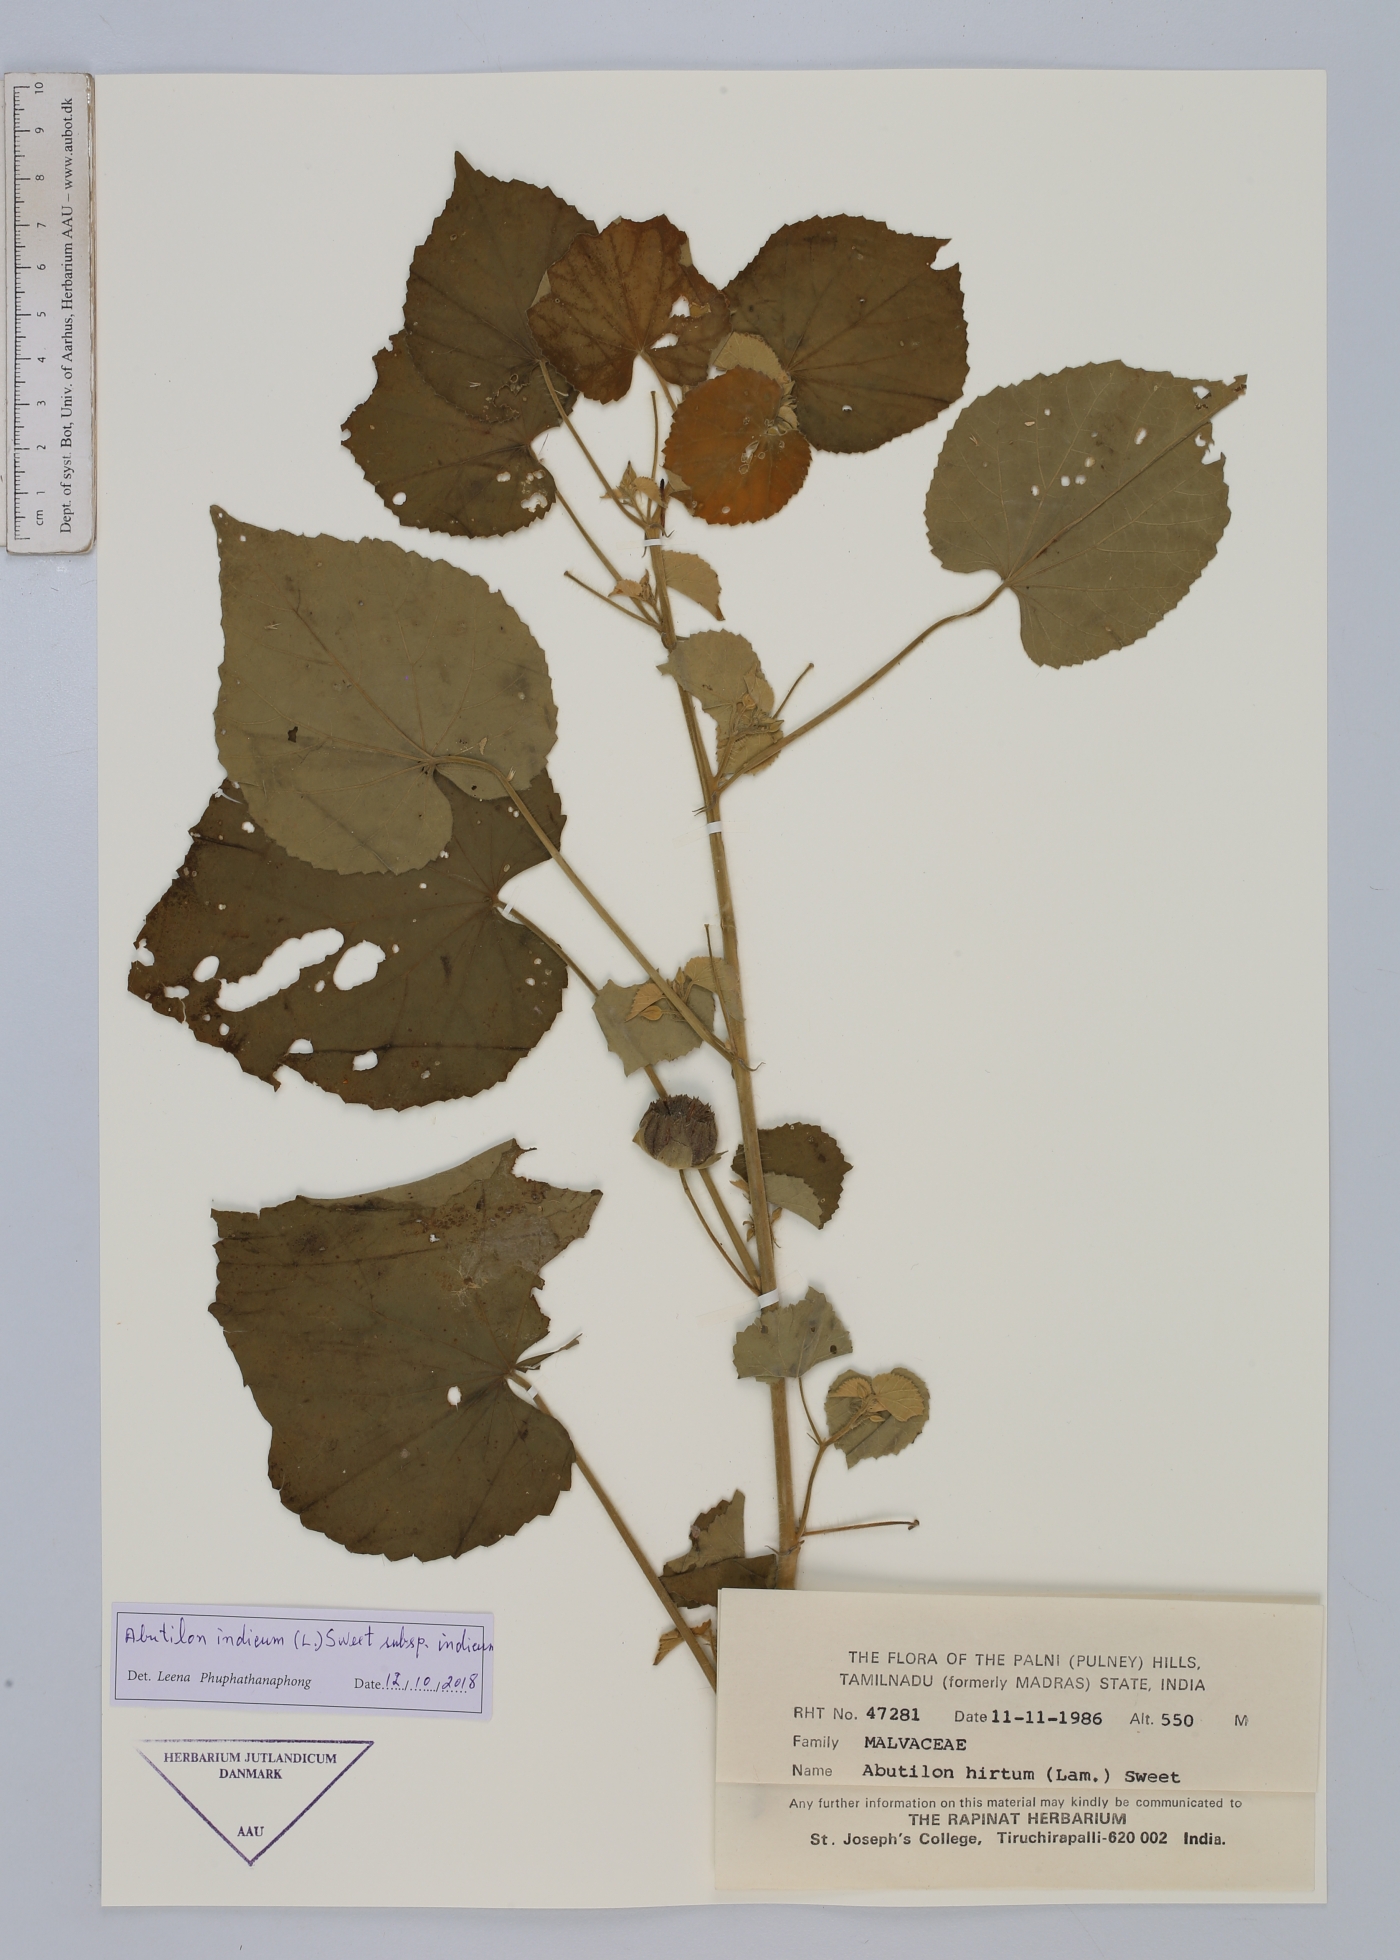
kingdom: Plantae
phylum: Tracheophyta
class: Magnoliopsida
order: Malvales
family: Malvaceae
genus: Abutilon
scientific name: Abutilon indicum
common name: Indian abutilon
